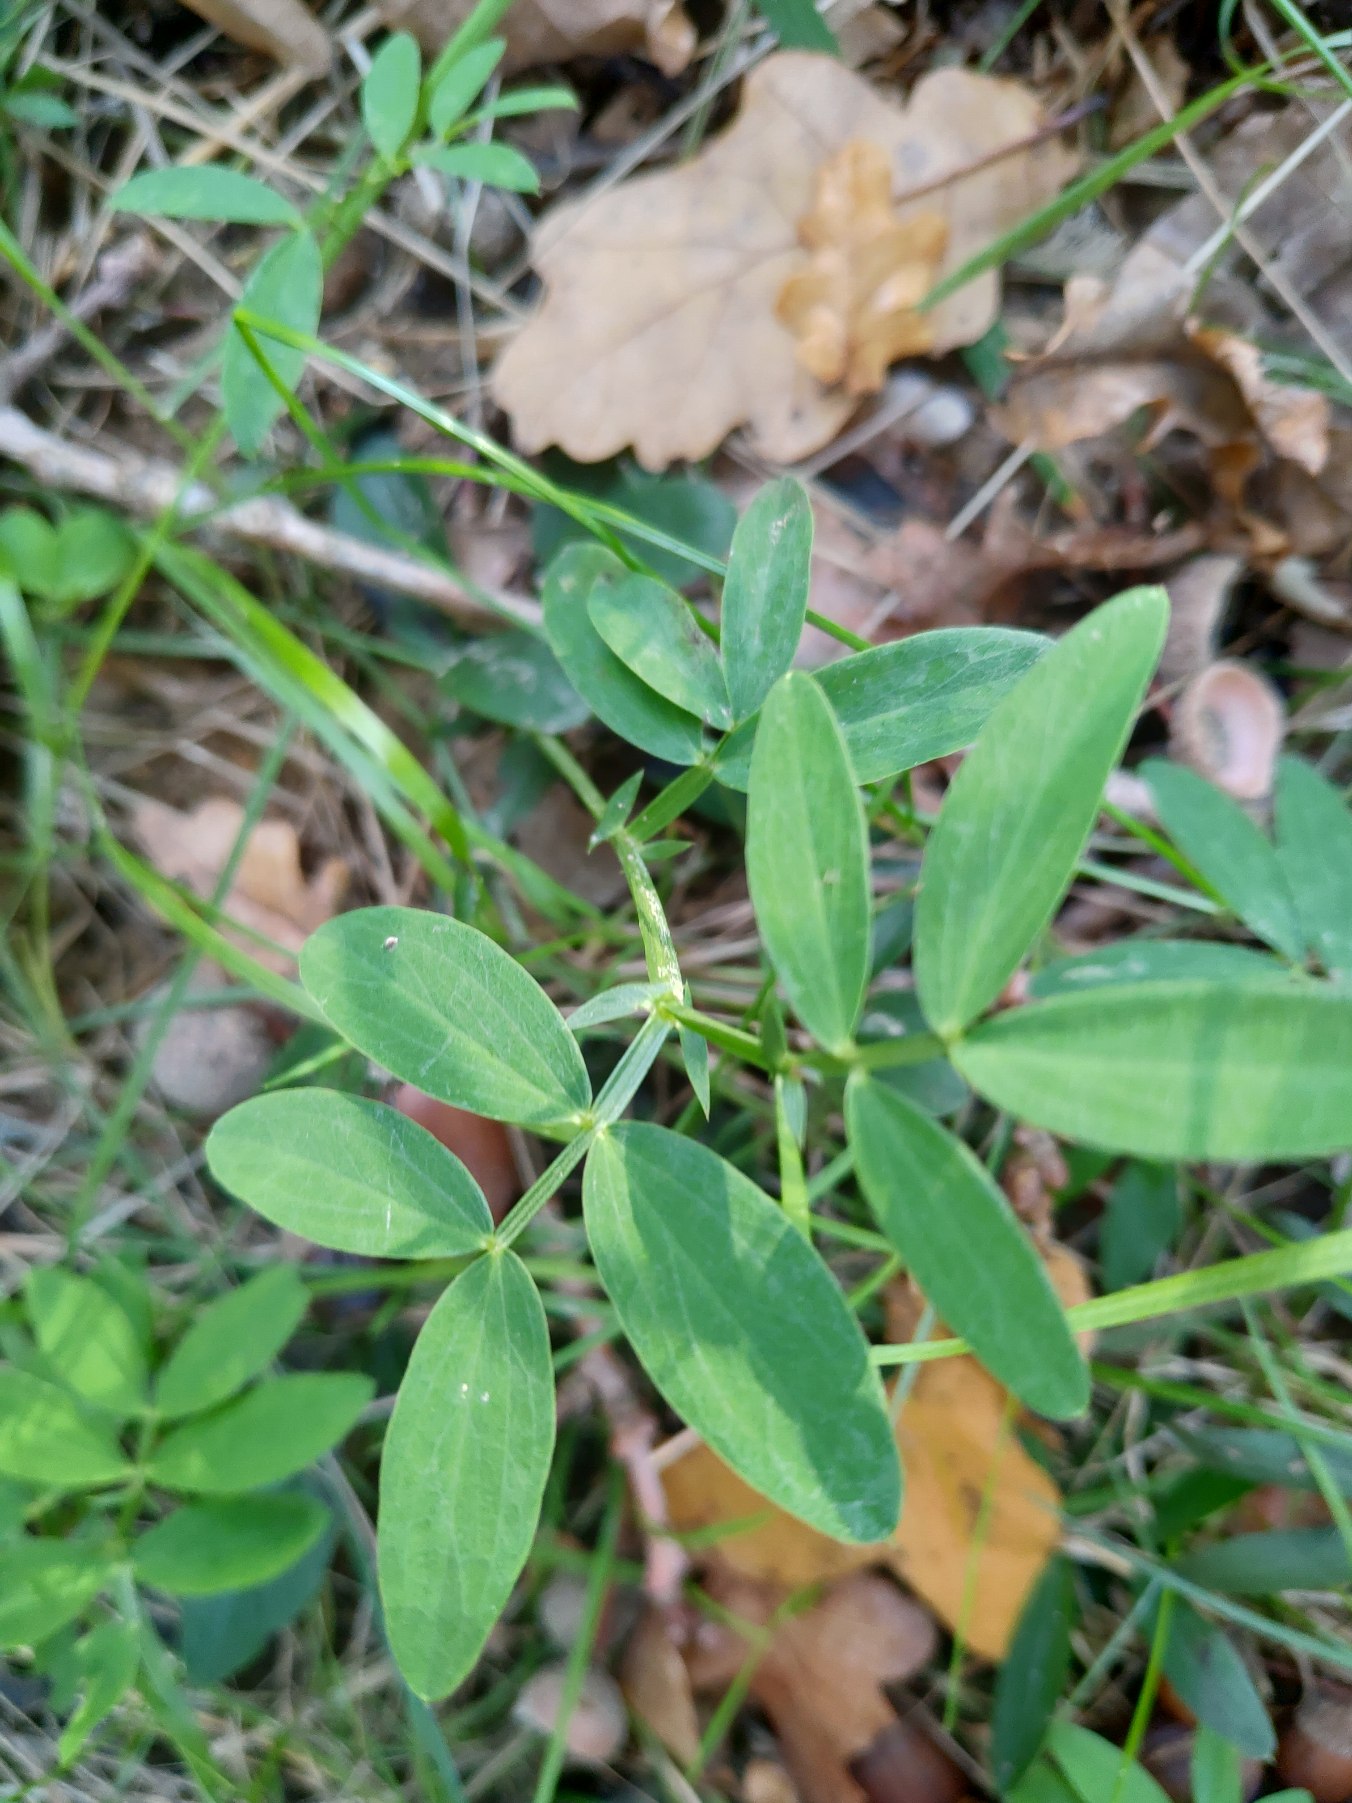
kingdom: Plantae
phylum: Tracheophyta
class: Magnoliopsida
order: Fabales
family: Fabaceae
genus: Lathyrus
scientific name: Lathyrus linifolius
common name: Krat-fladbælg
